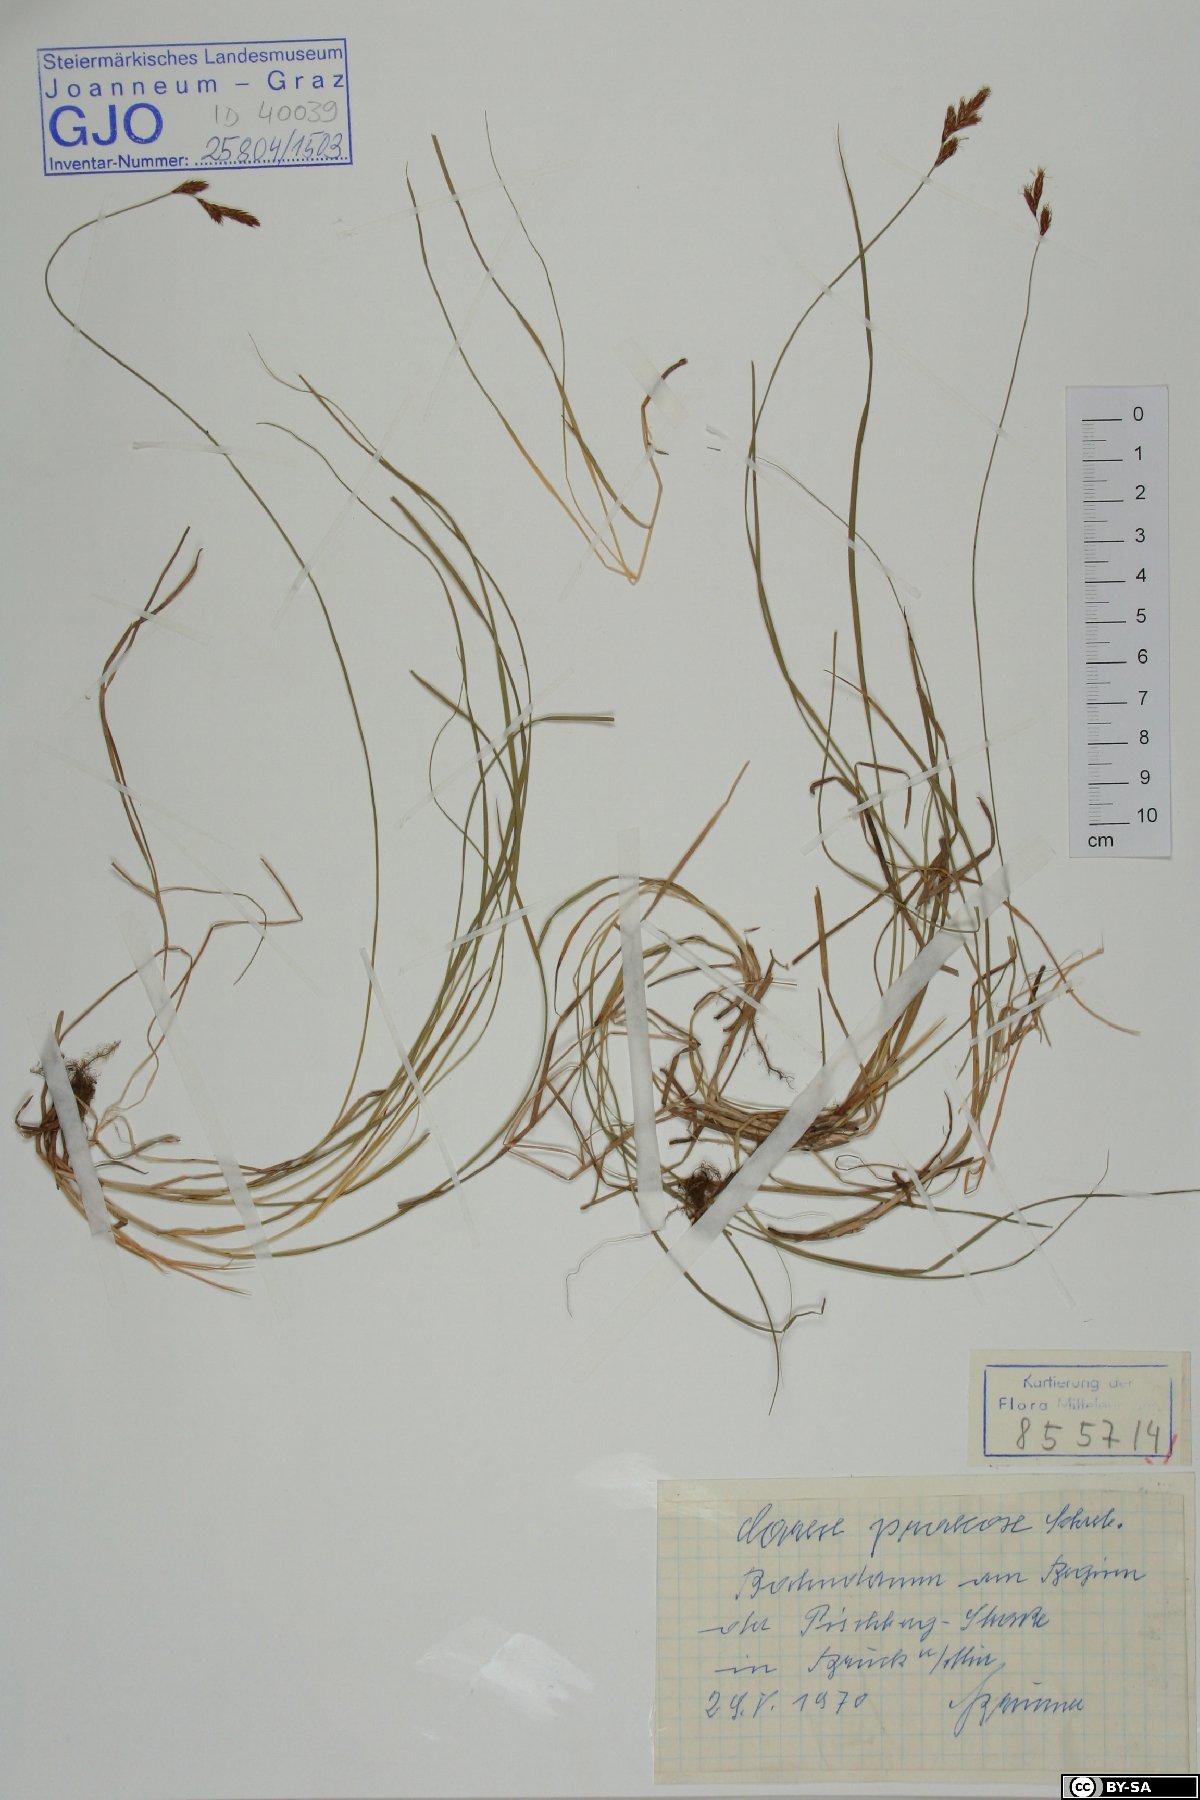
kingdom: Plantae
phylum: Tracheophyta
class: Liliopsida
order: Poales
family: Cyperaceae
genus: Carex
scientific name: Carex praecox
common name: Early sedge
